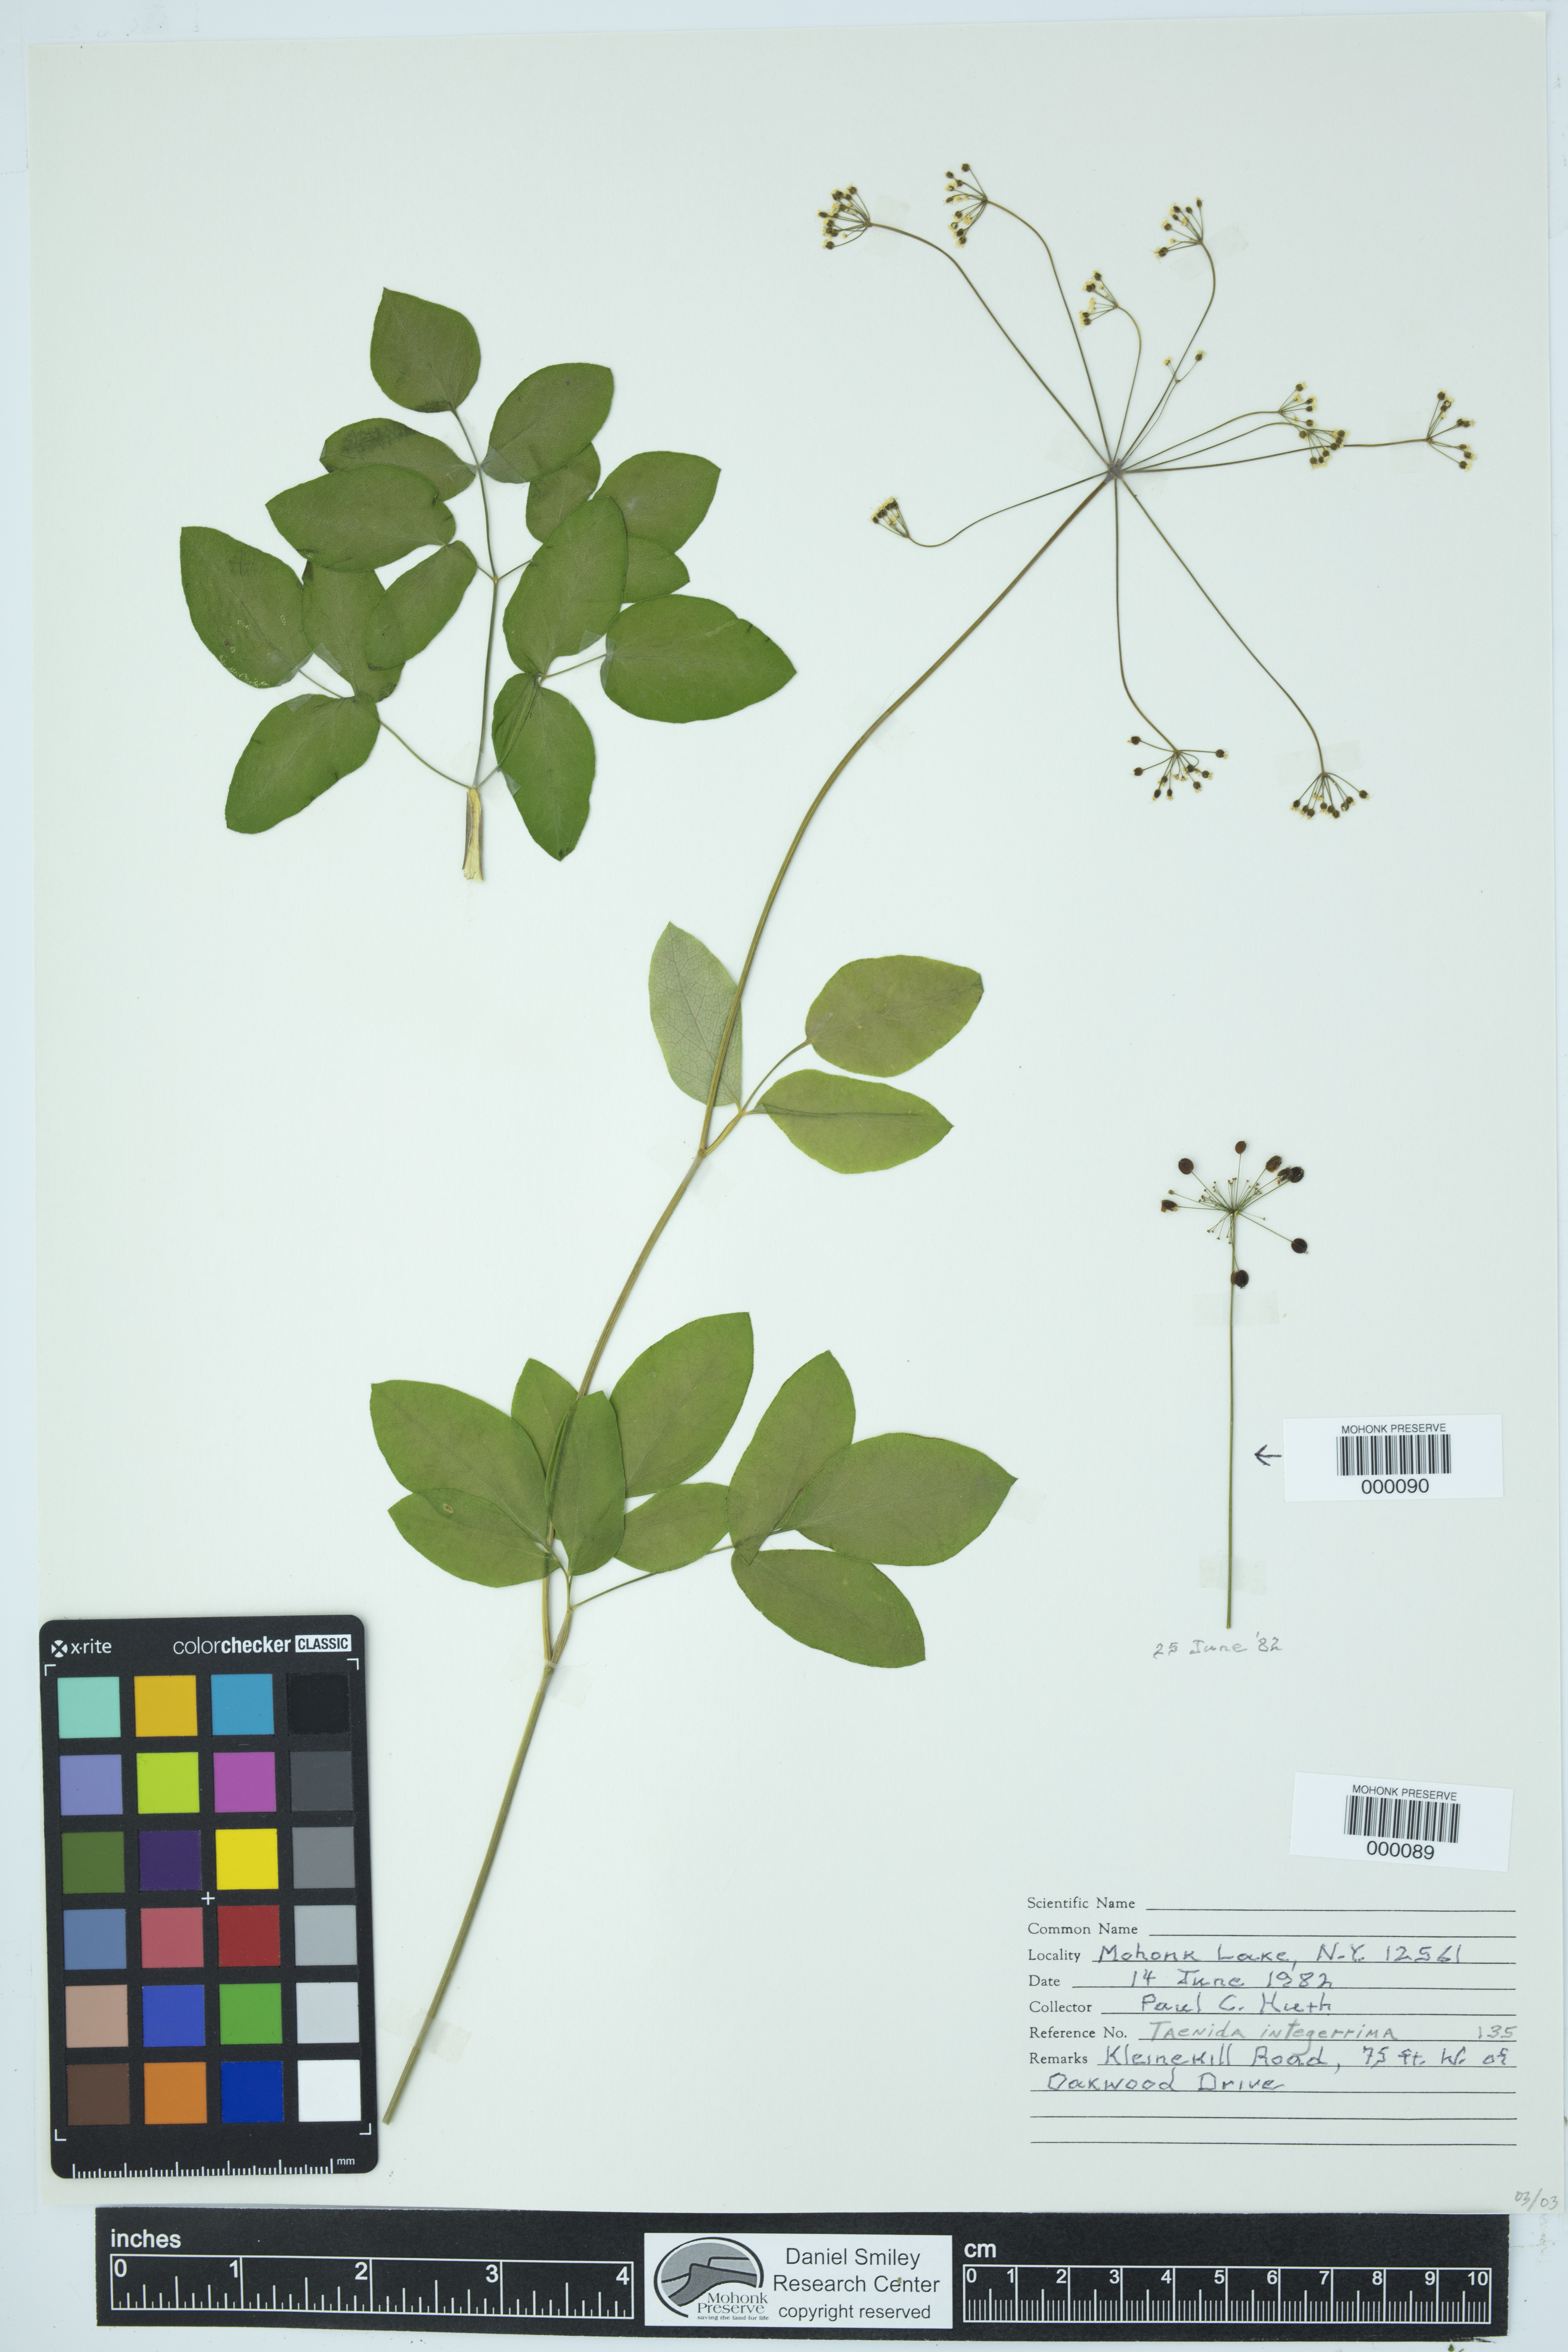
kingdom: Plantae
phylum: Tracheophyta
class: Magnoliopsida
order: Apiales
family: Apiaceae
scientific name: Apiaceae
